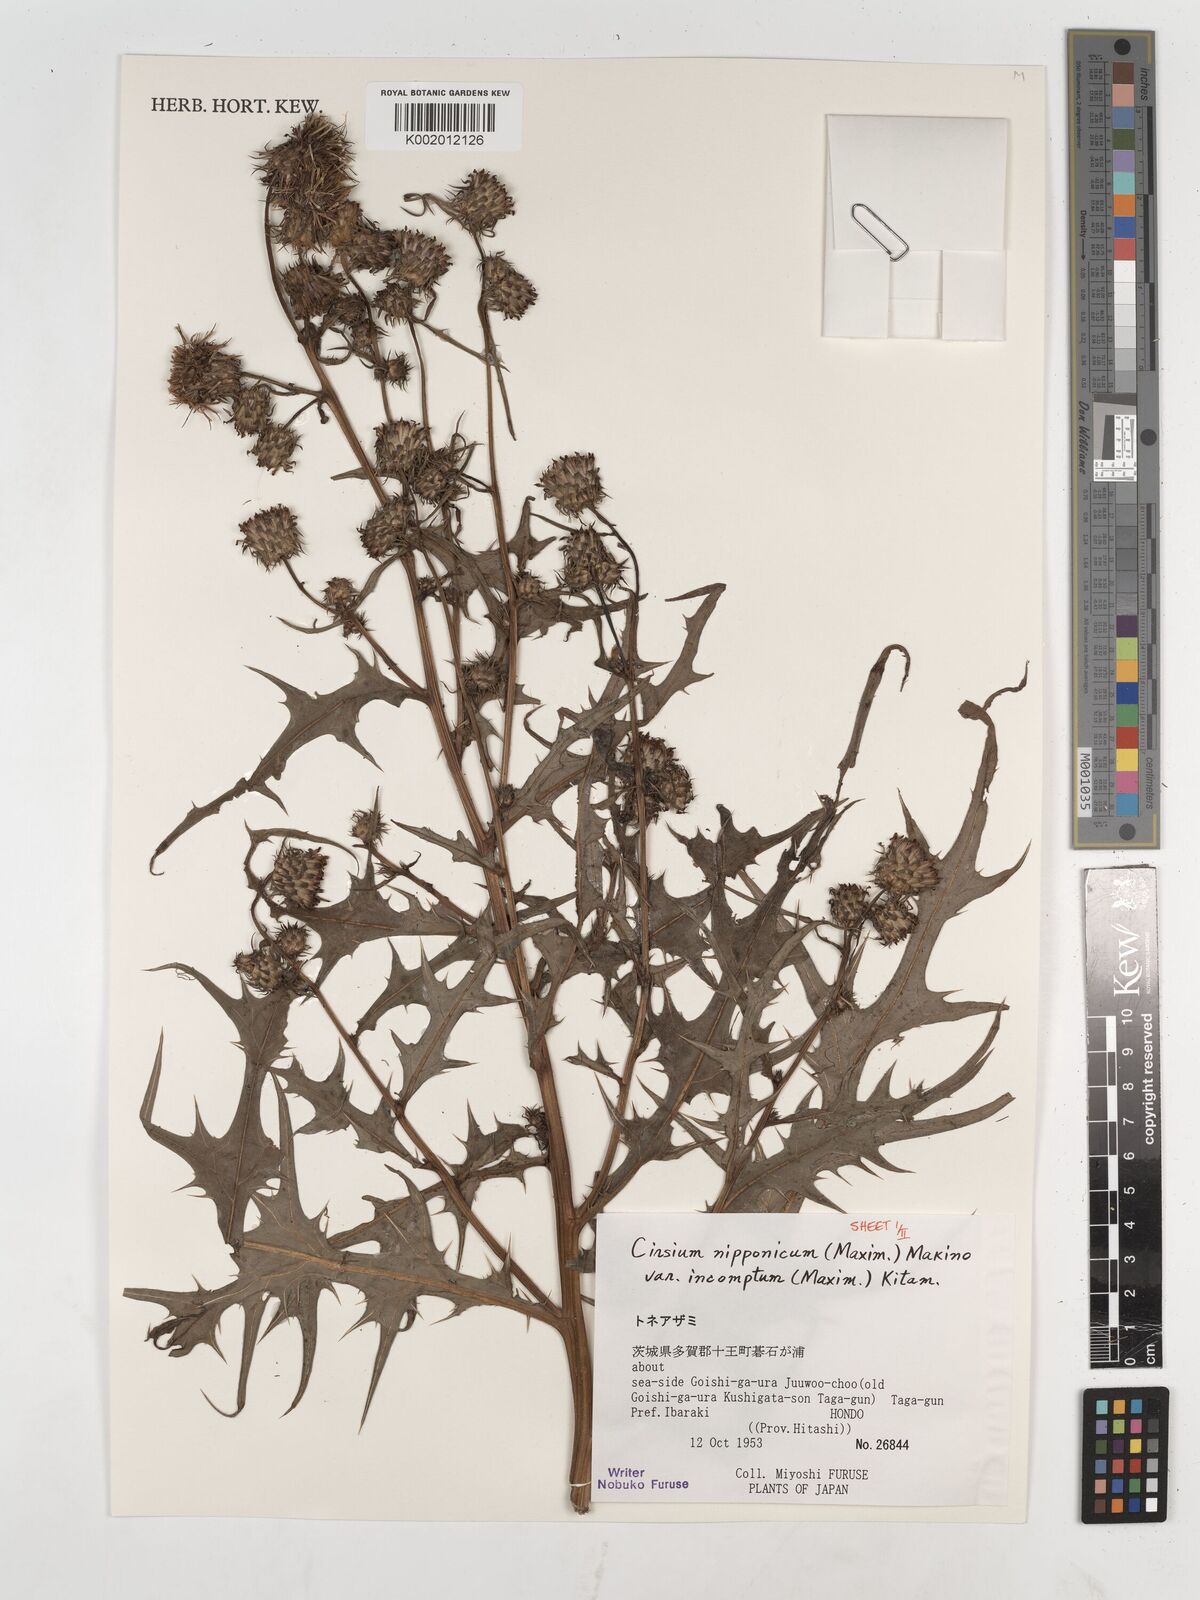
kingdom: Plantae
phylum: Tracheophyta
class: Magnoliopsida
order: Asterales
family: Asteraceae
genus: Cirsium
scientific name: Cirsium nipponicum
